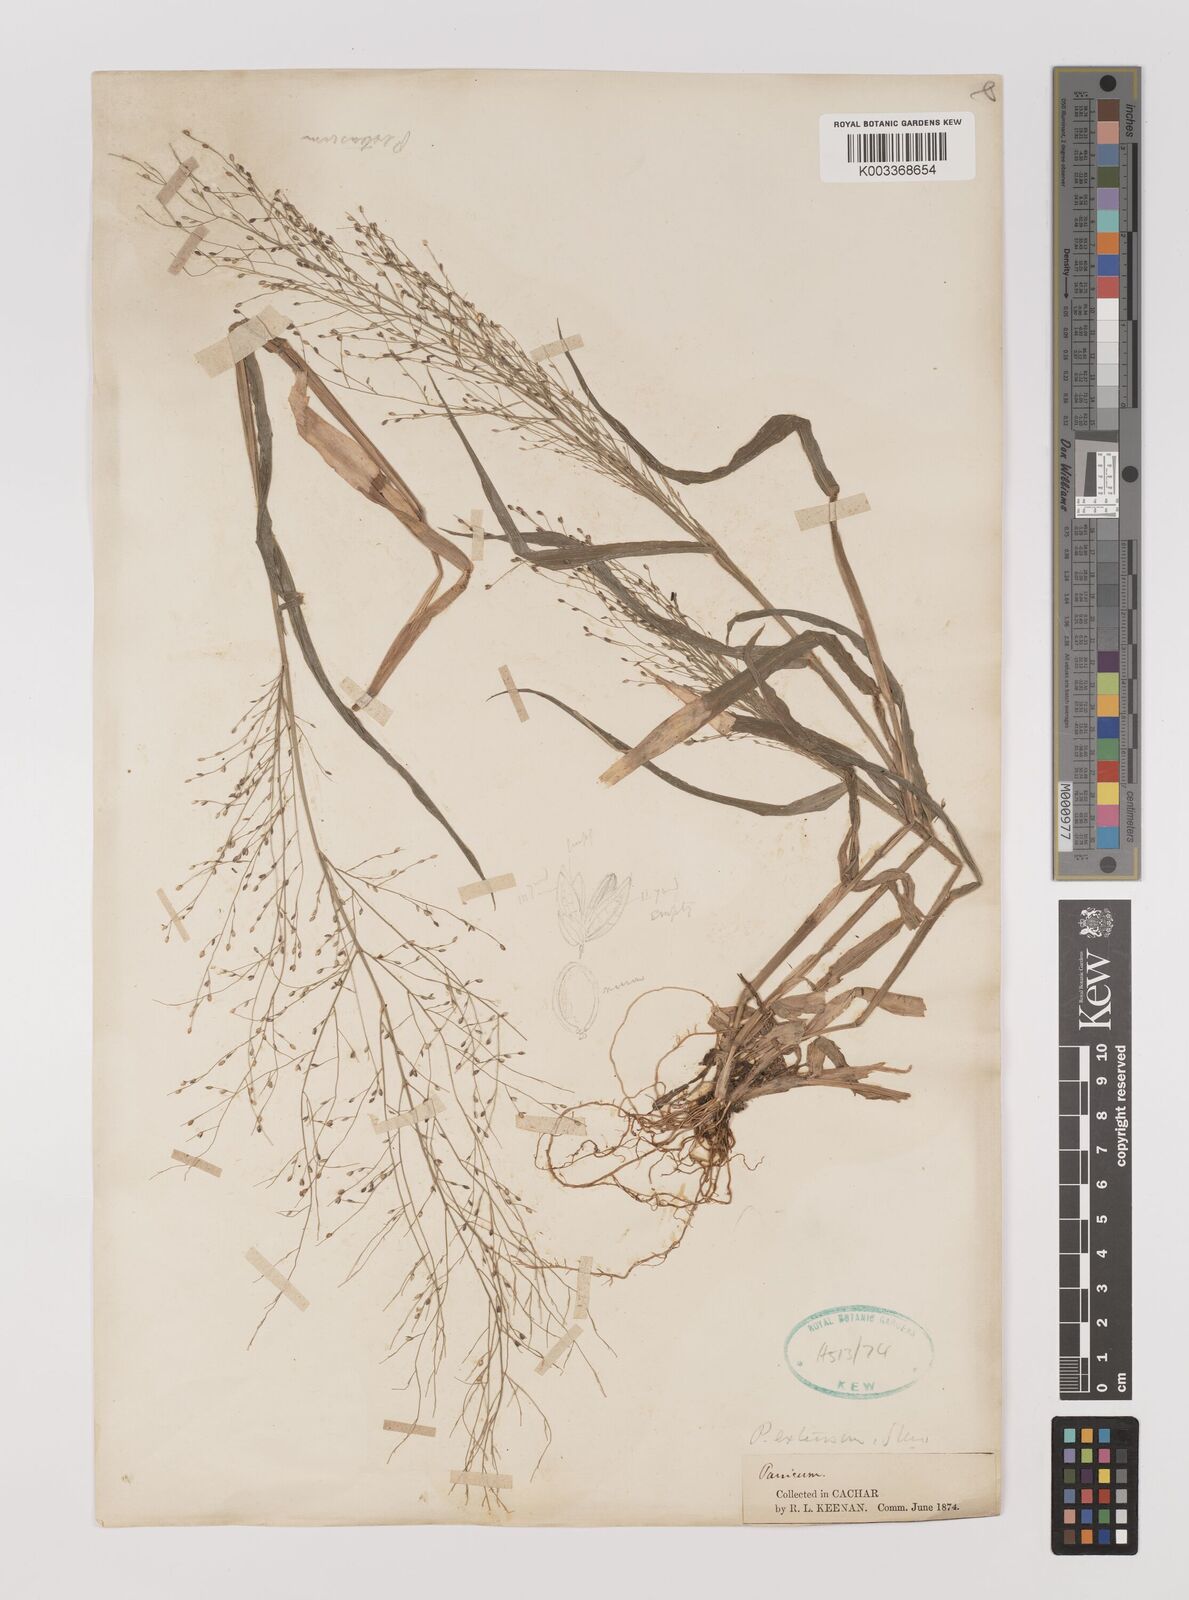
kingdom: Plantae
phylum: Tracheophyta
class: Liliopsida
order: Poales
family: Poaceae
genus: Panicum
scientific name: Panicum luzonense
